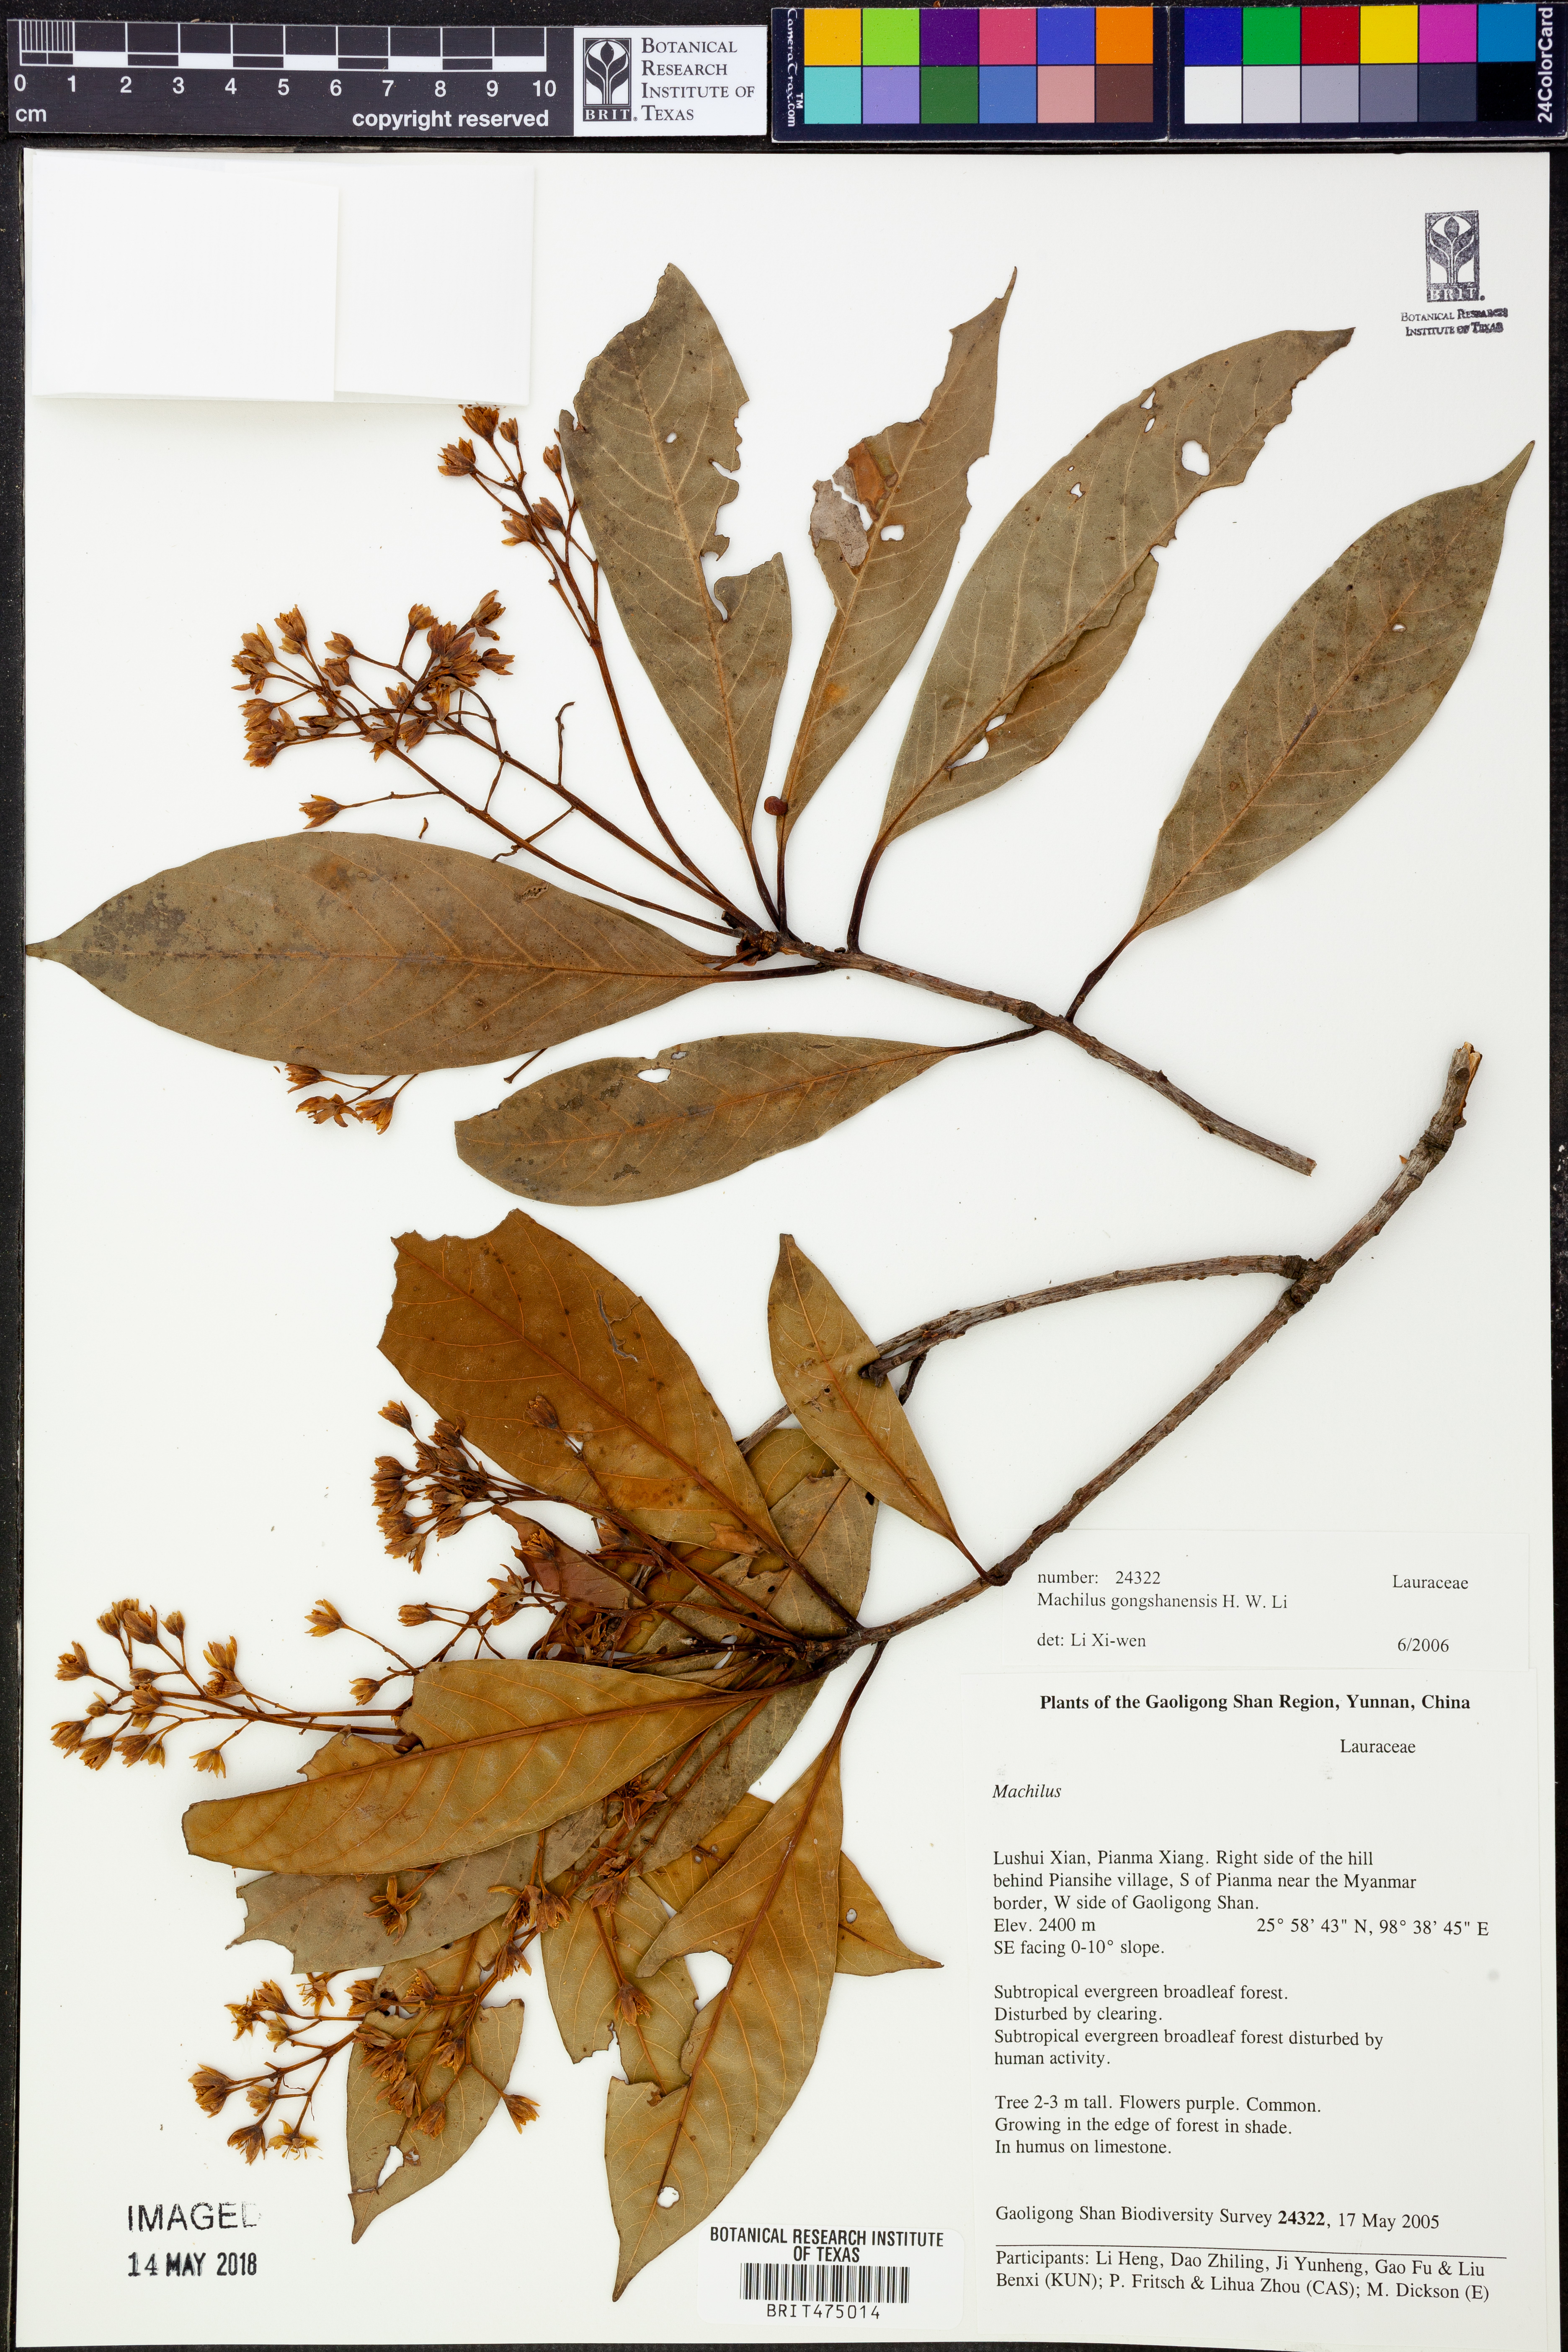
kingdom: Plantae
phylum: Tracheophyta
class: Magnoliopsida
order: Laurales
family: Lauraceae
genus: Machilus
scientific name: Machilus gongshanensis
